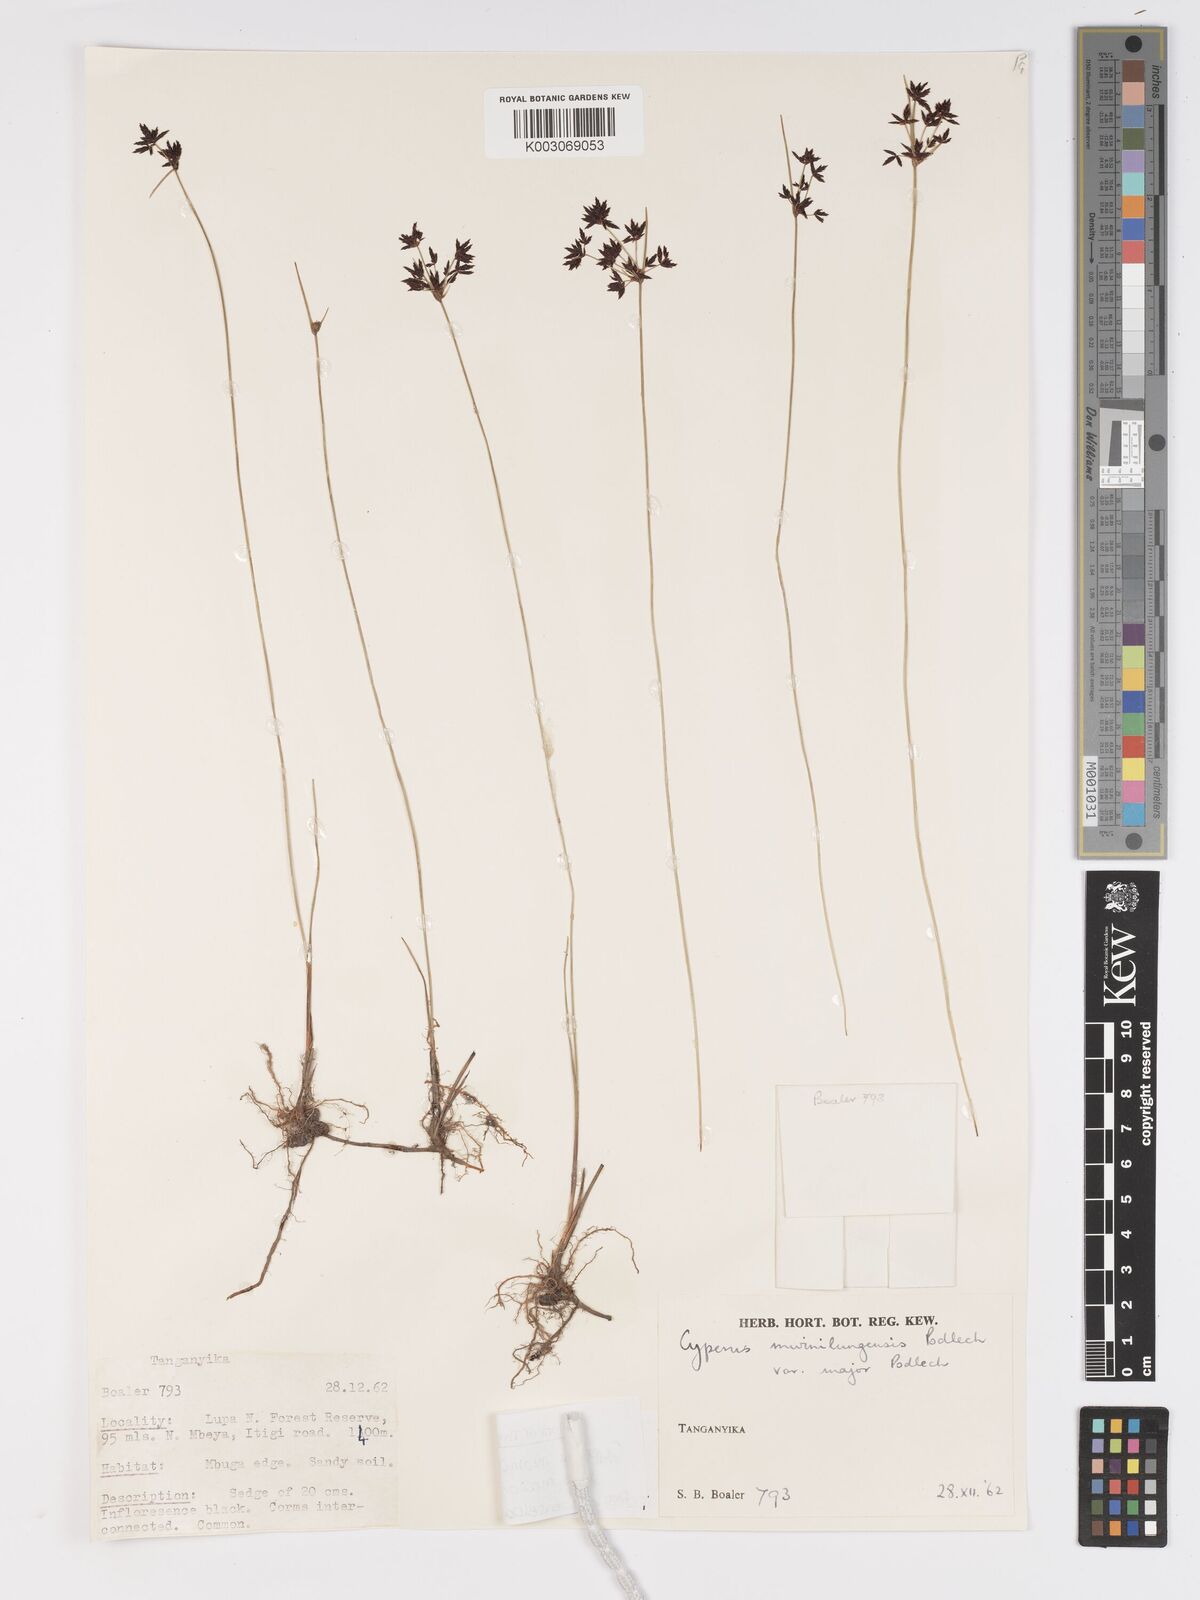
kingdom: Plantae
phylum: Tracheophyta
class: Liliopsida
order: Poales
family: Cyperaceae
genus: Cyperus
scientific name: Cyperus mwinilungensis
